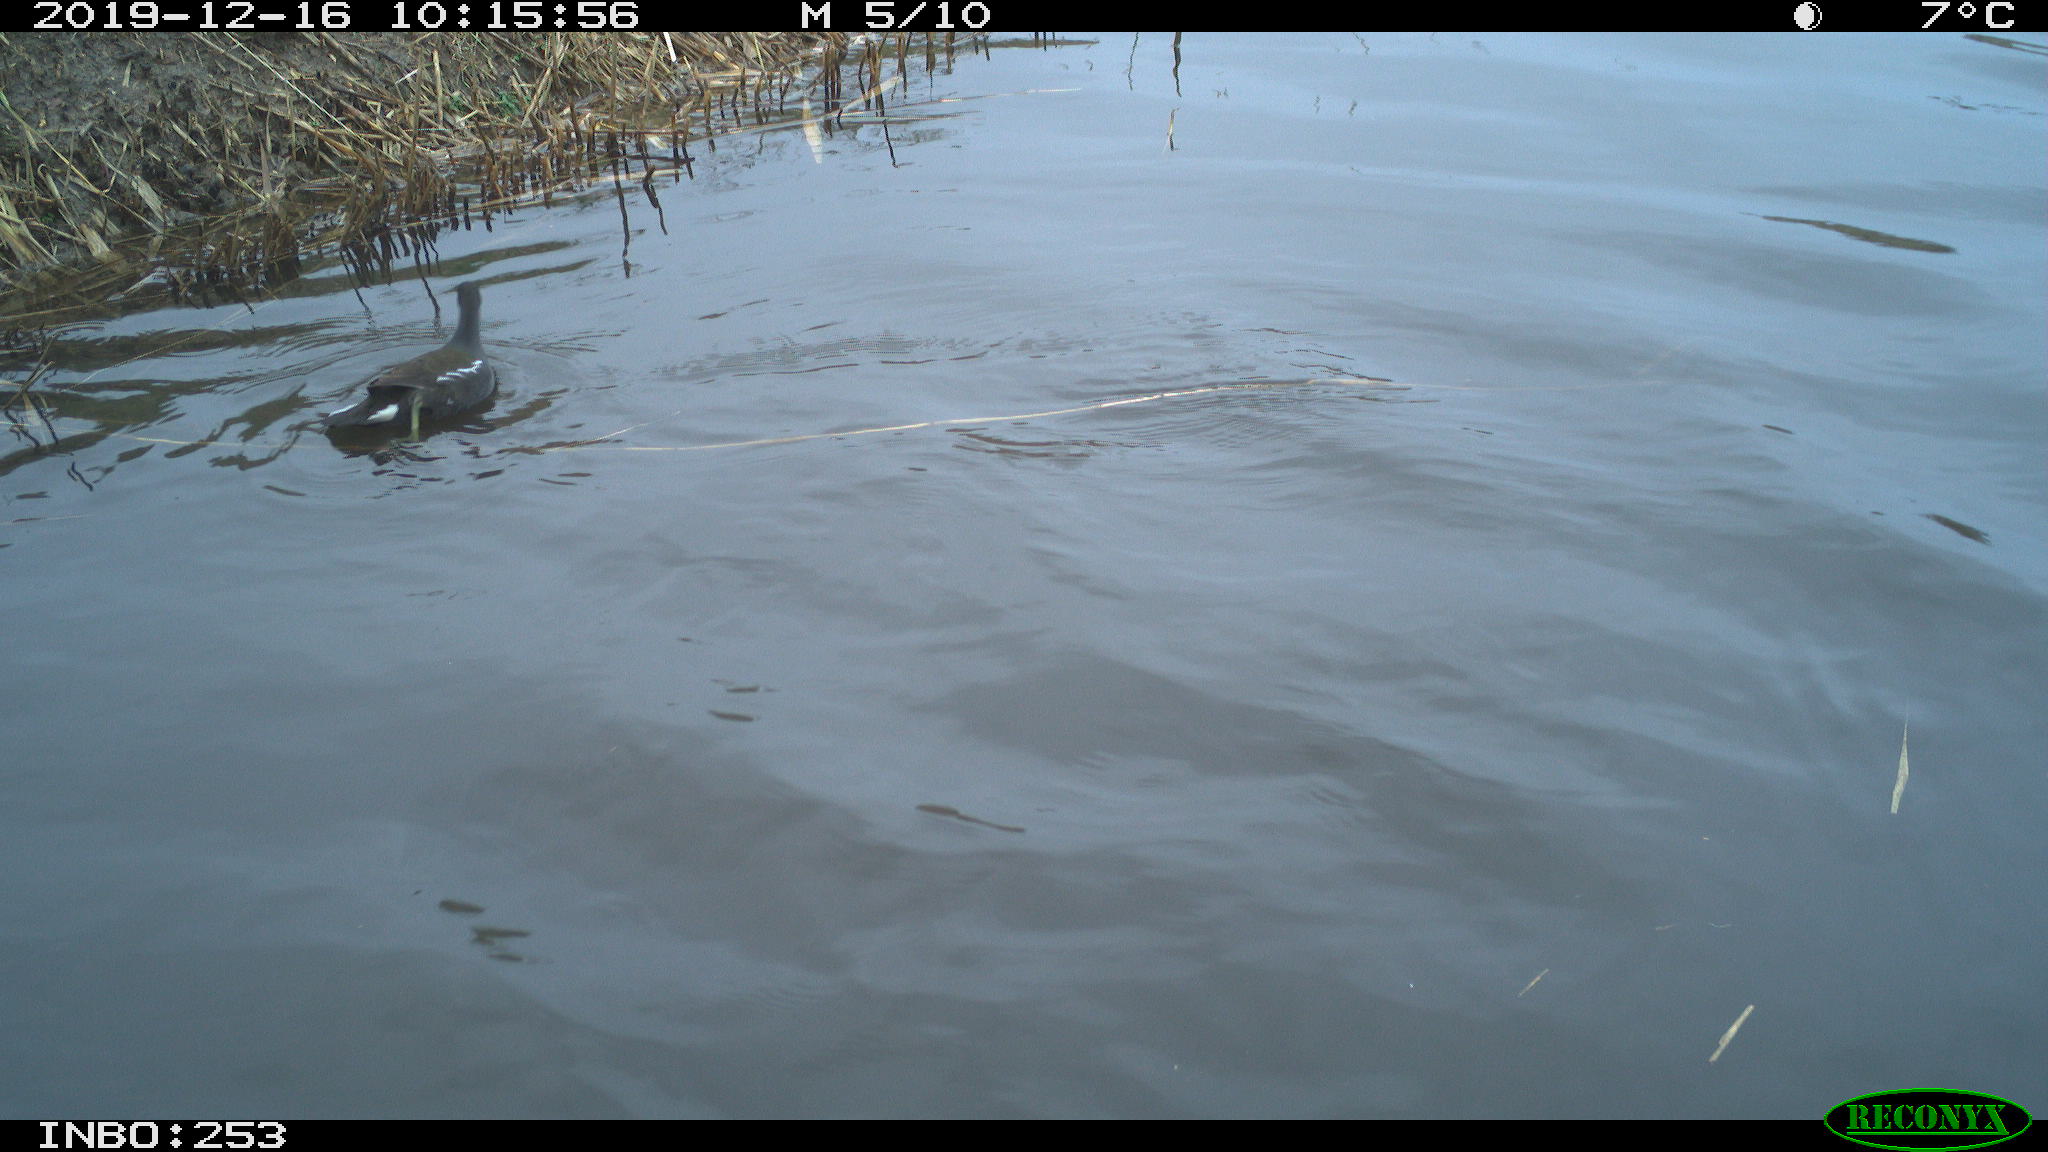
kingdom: Animalia
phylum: Chordata
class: Aves
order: Gruiformes
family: Rallidae
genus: Gallinula
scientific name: Gallinula chloropus
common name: Common moorhen
